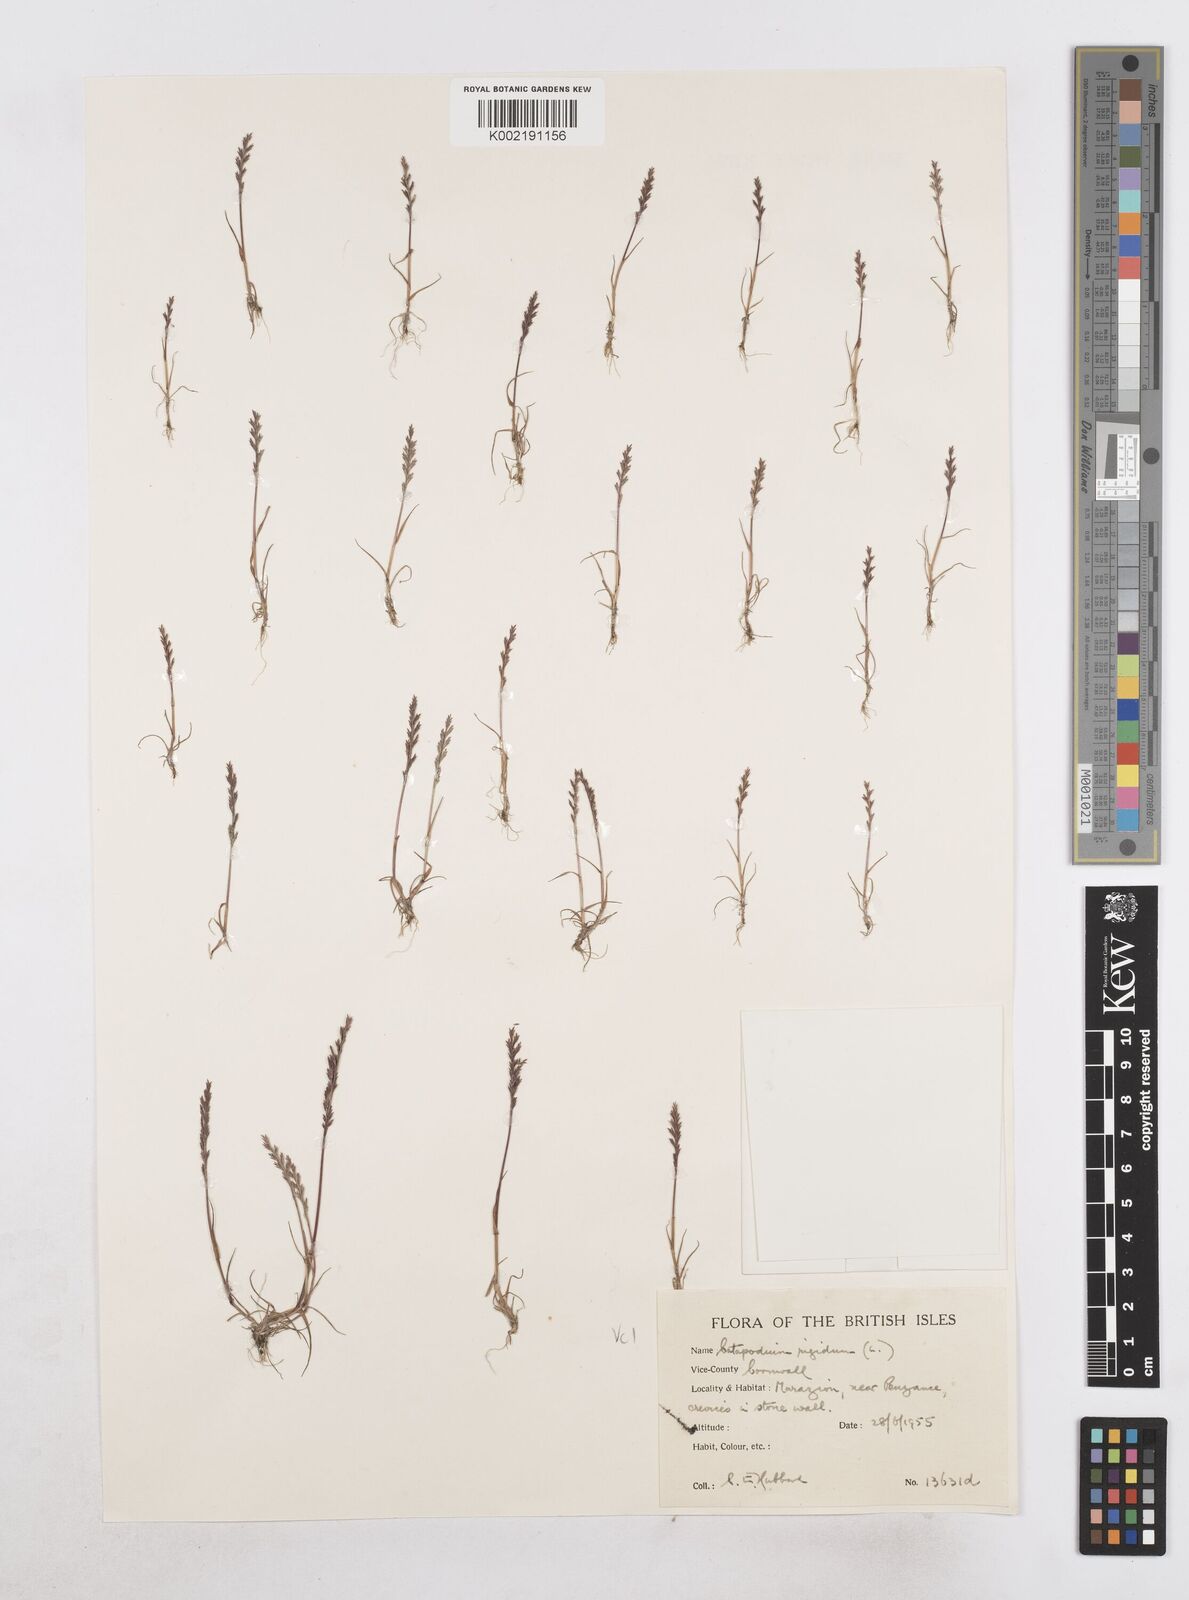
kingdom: Plantae
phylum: Tracheophyta
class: Liliopsida
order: Poales
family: Poaceae
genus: Catapodium
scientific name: Catapodium rigidum
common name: Fern-grass
